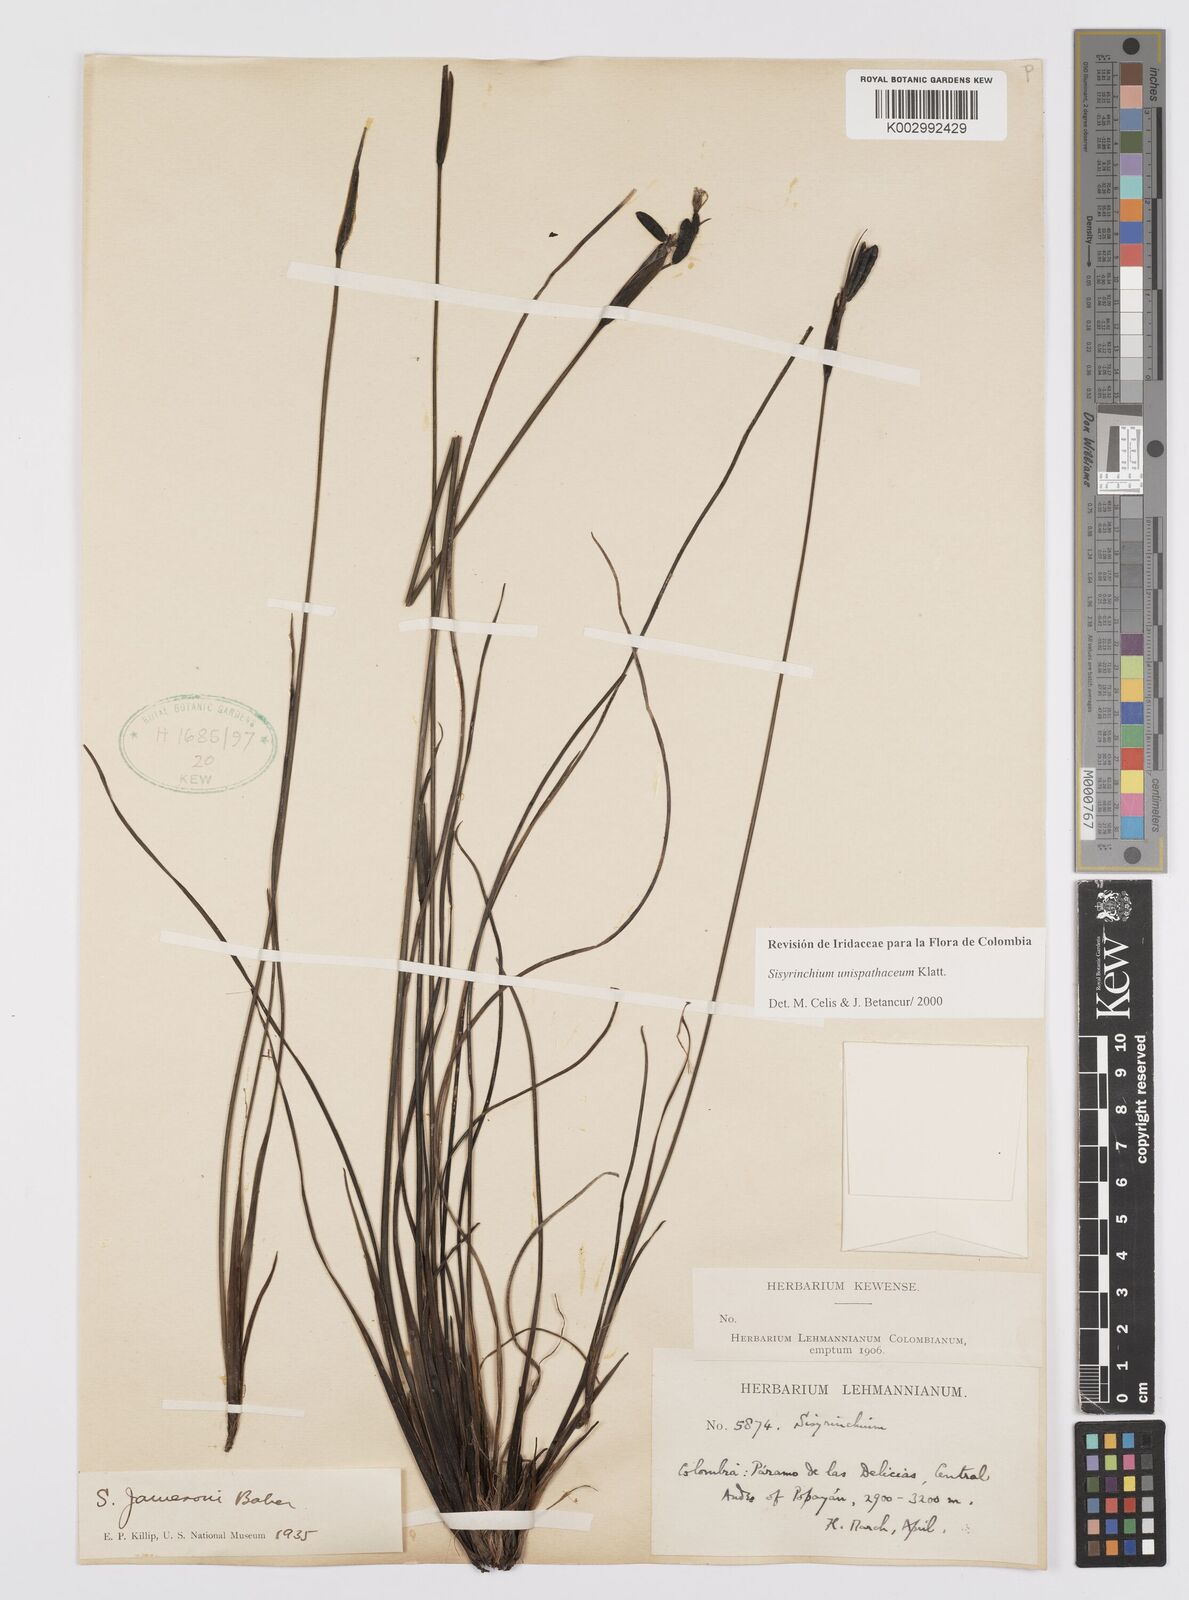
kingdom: Plantae
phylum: Tracheophyta
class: Liliopsida
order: Asparagales
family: Iridaceae
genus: Sisyrinchium
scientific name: Sisyrinchium unispathaceum
